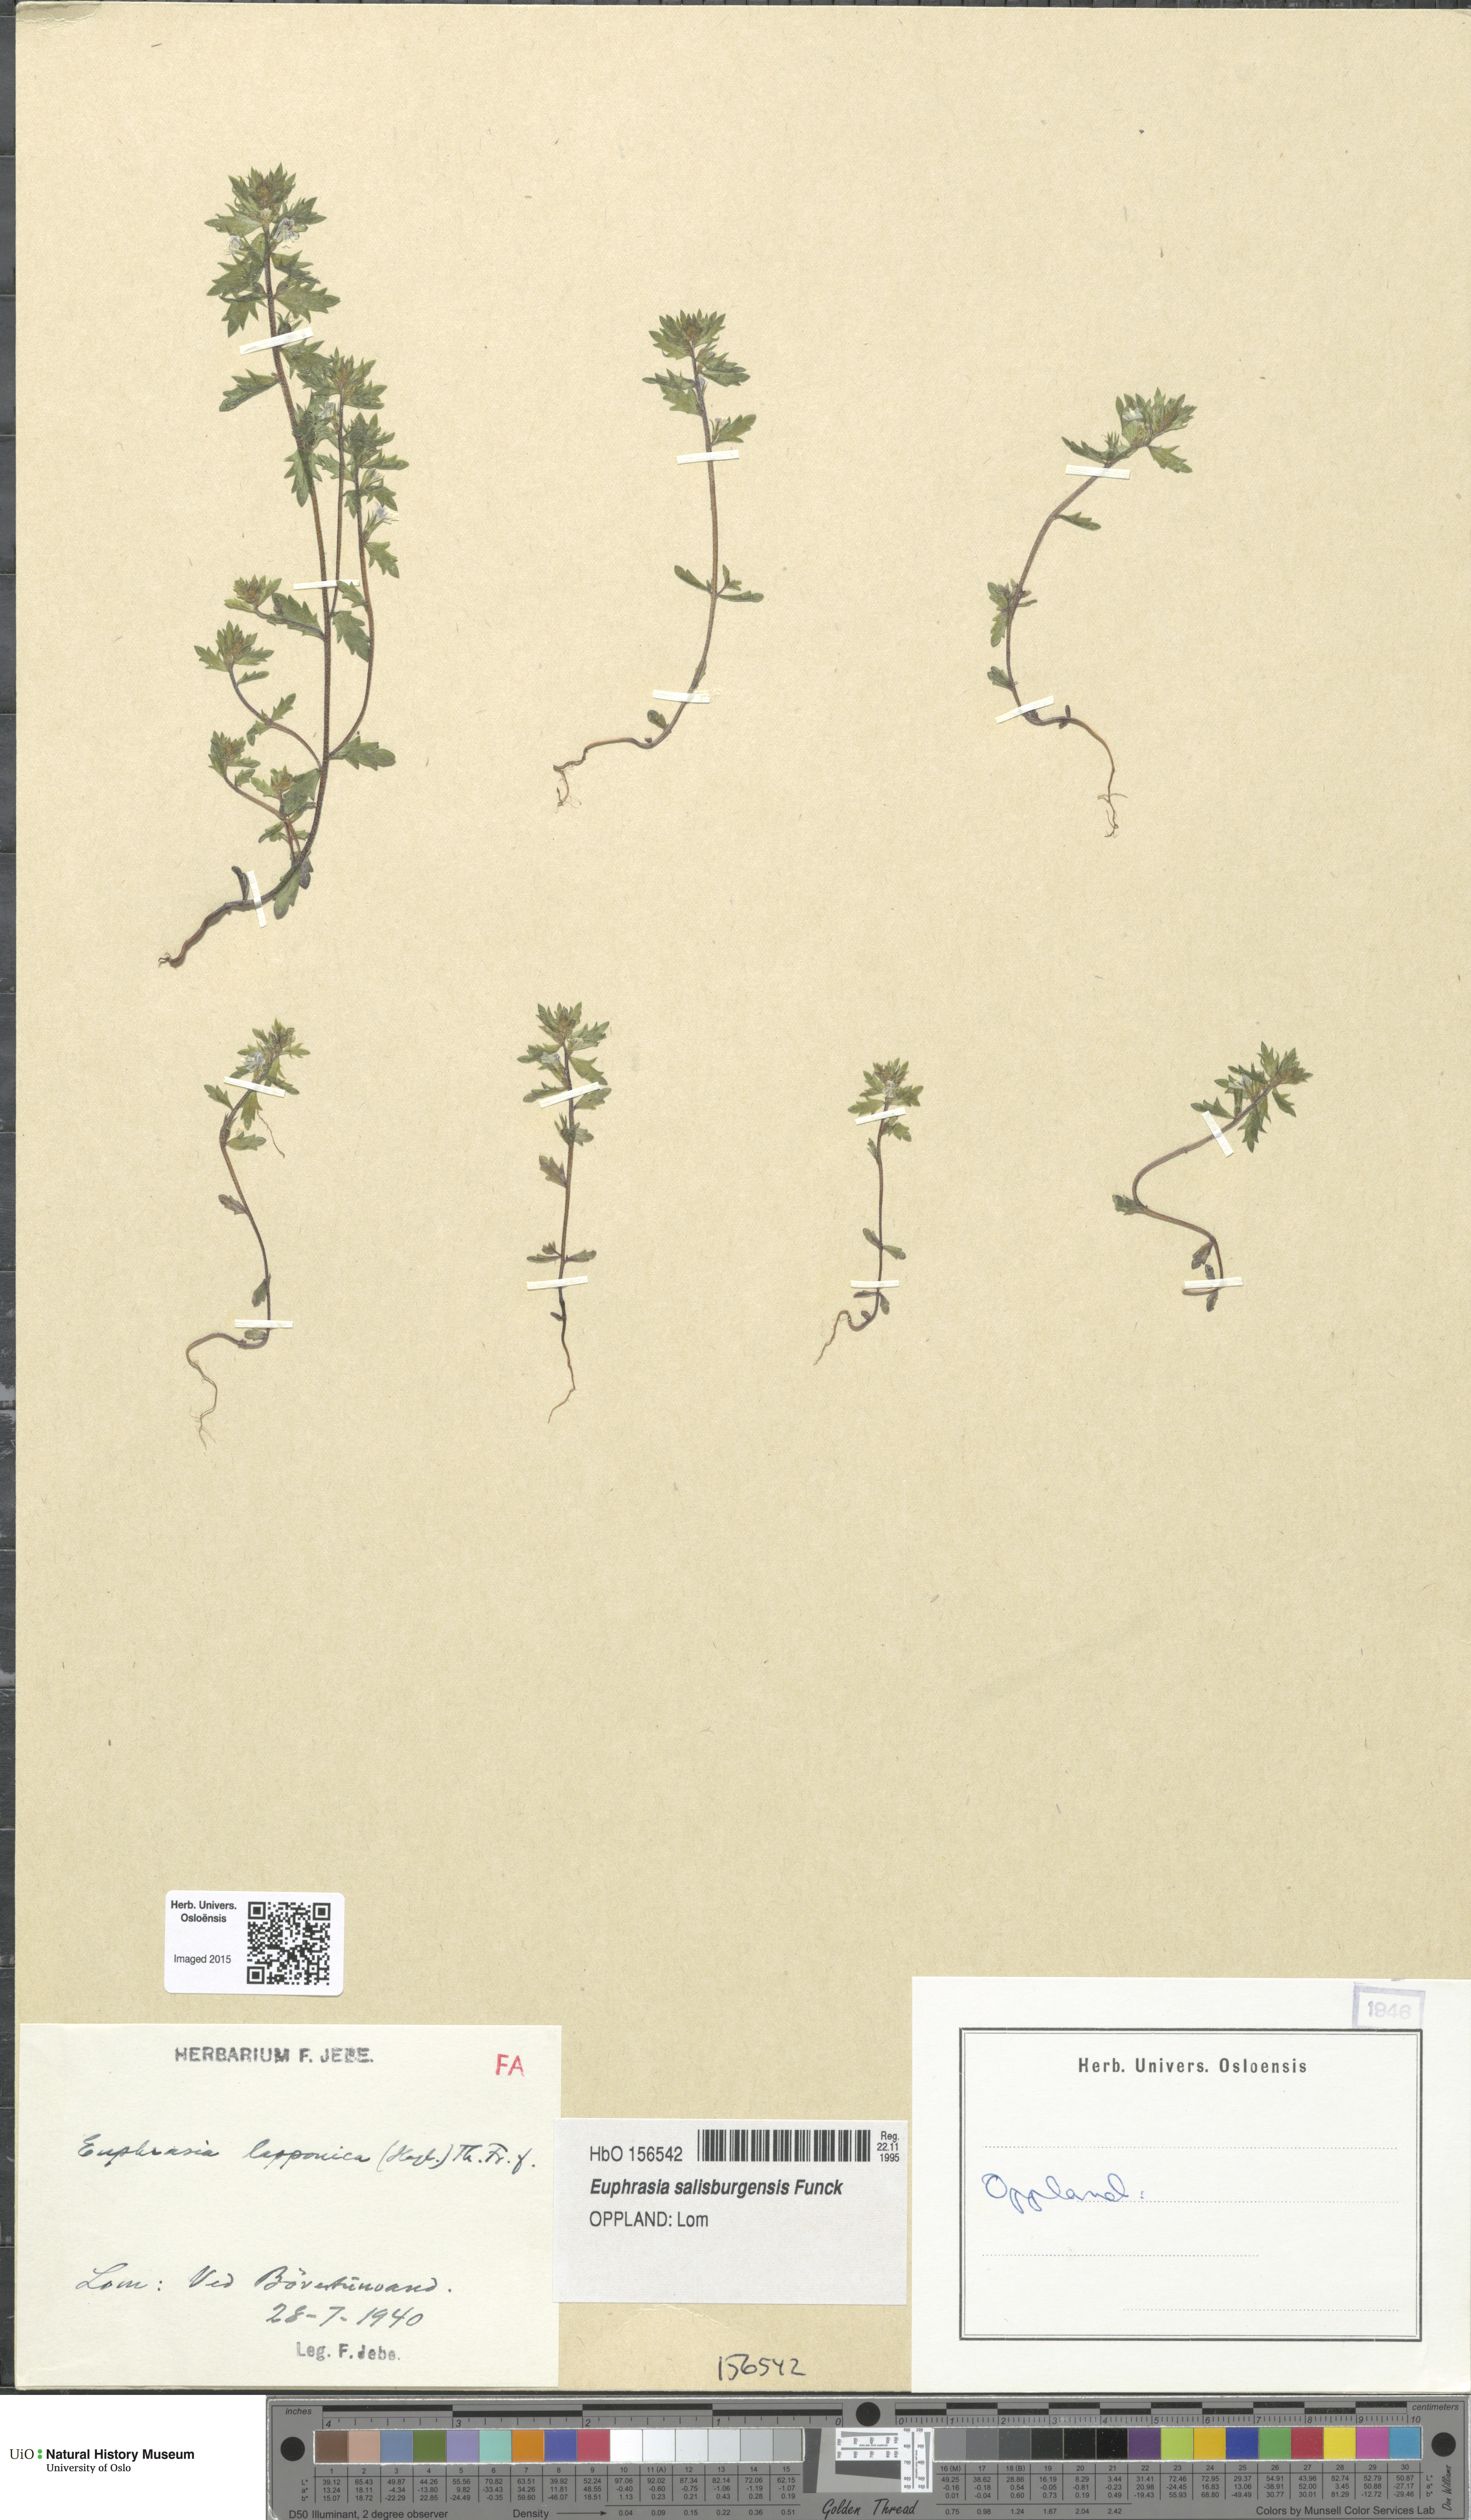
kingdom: Plantae
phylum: Tracheophyta
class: Magnoliopsida
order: Lamiales
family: Orobanchaceae
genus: Euphrasia
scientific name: Euphrasia salisburgensis
